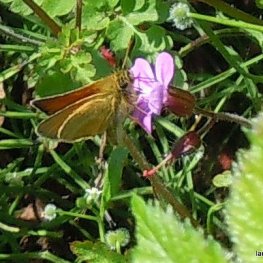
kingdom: Animalia
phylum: Arthropoda
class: Insecta
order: Lepidoptera
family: Hesperiidae
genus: Thymelicus
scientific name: Thymelicus lineola
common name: European Skipper
